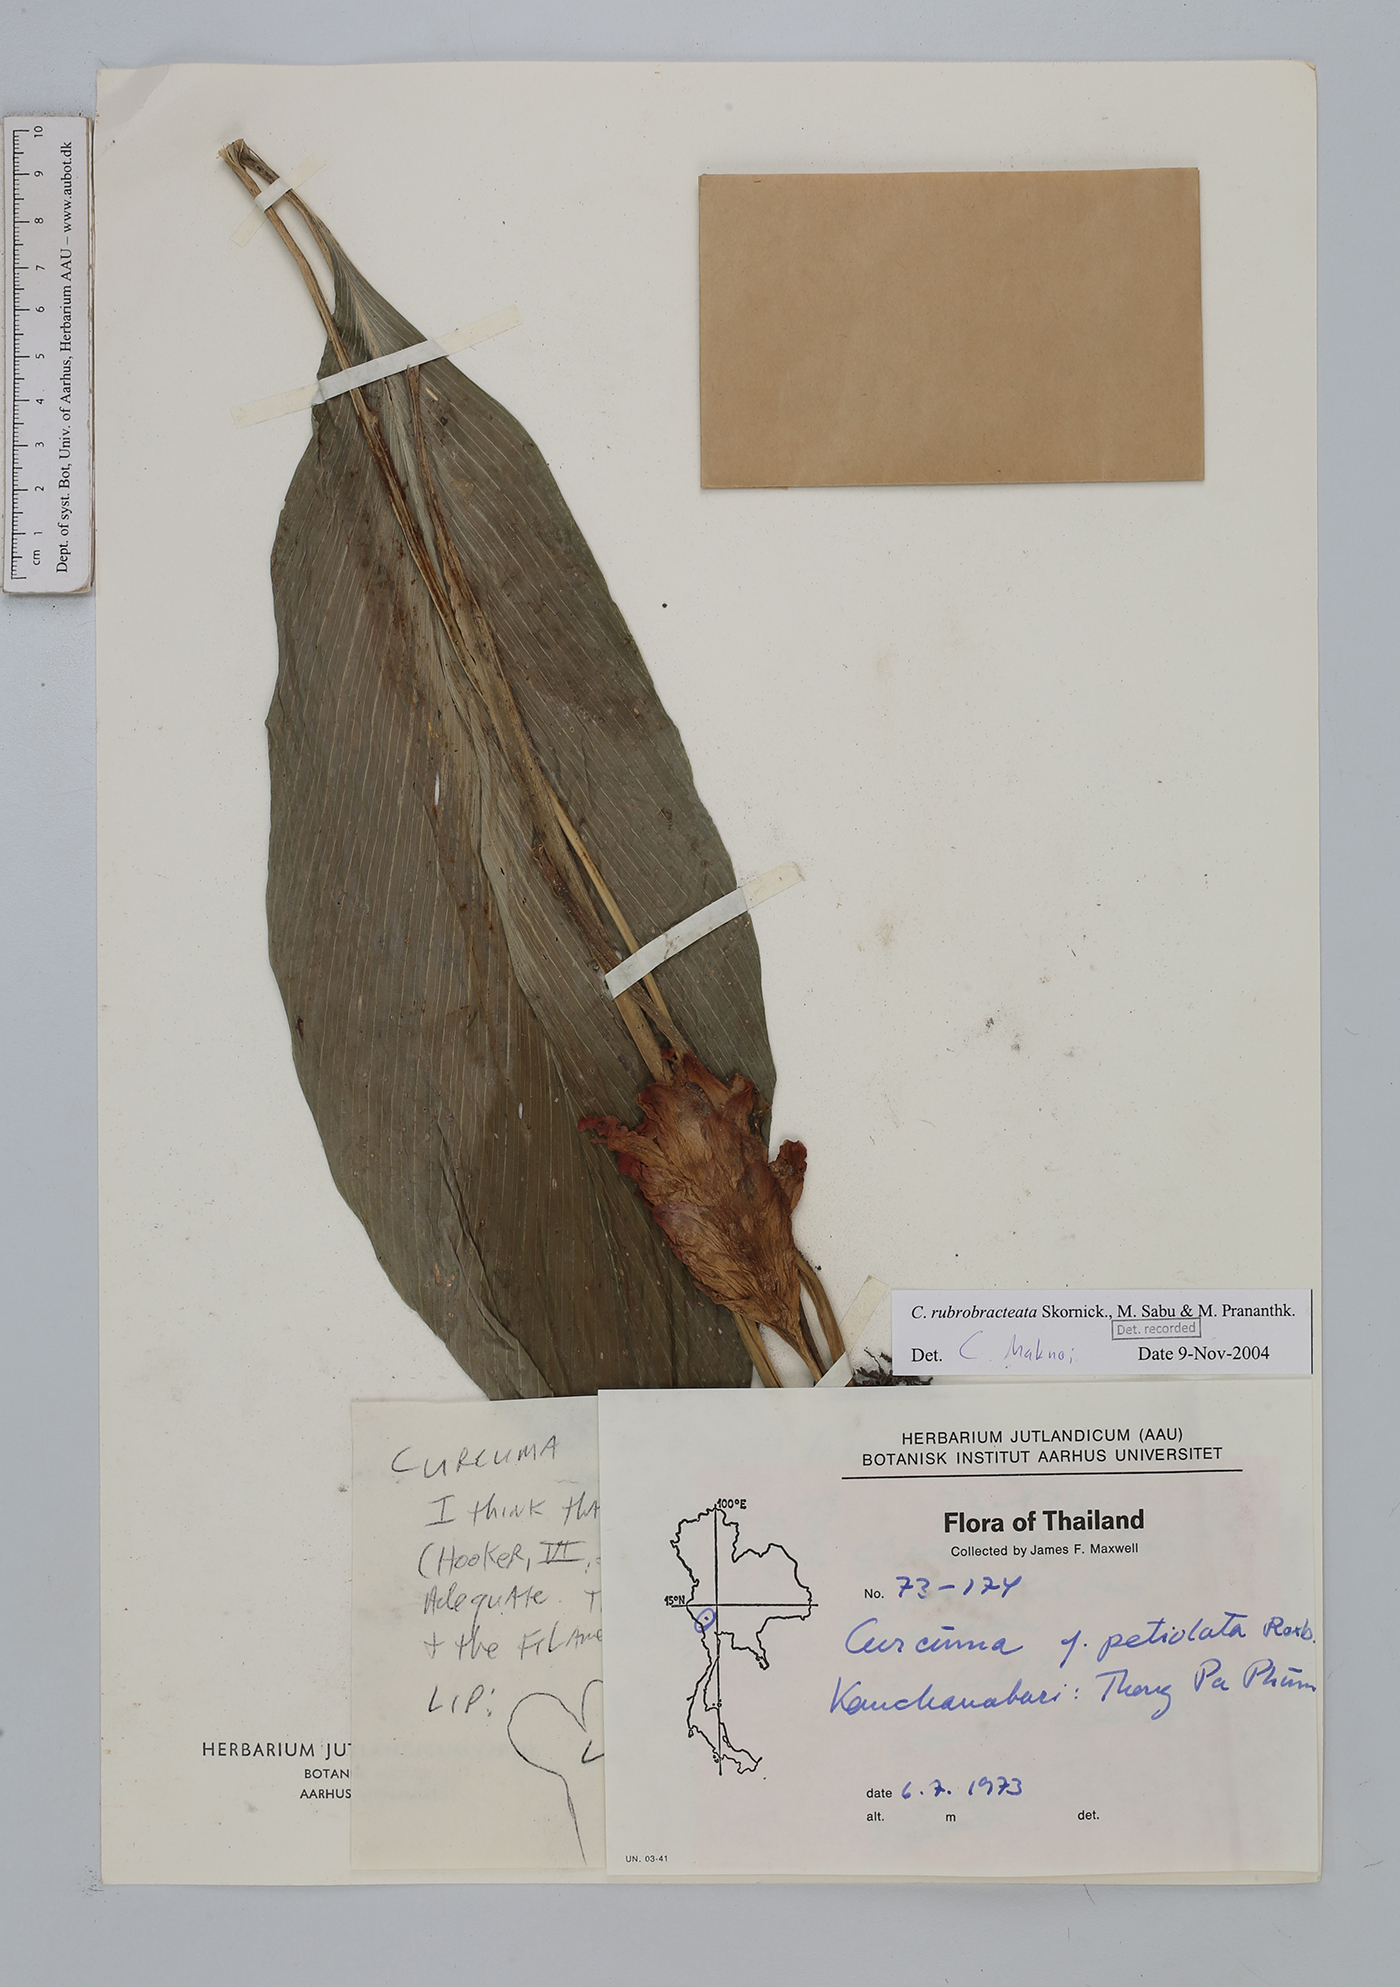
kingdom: Plantae
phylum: Tracheophyta
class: Liliopsida
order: Zingiberales
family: Zingiberaceae
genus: Curcuma
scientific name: Curcuma rubrobracteata
